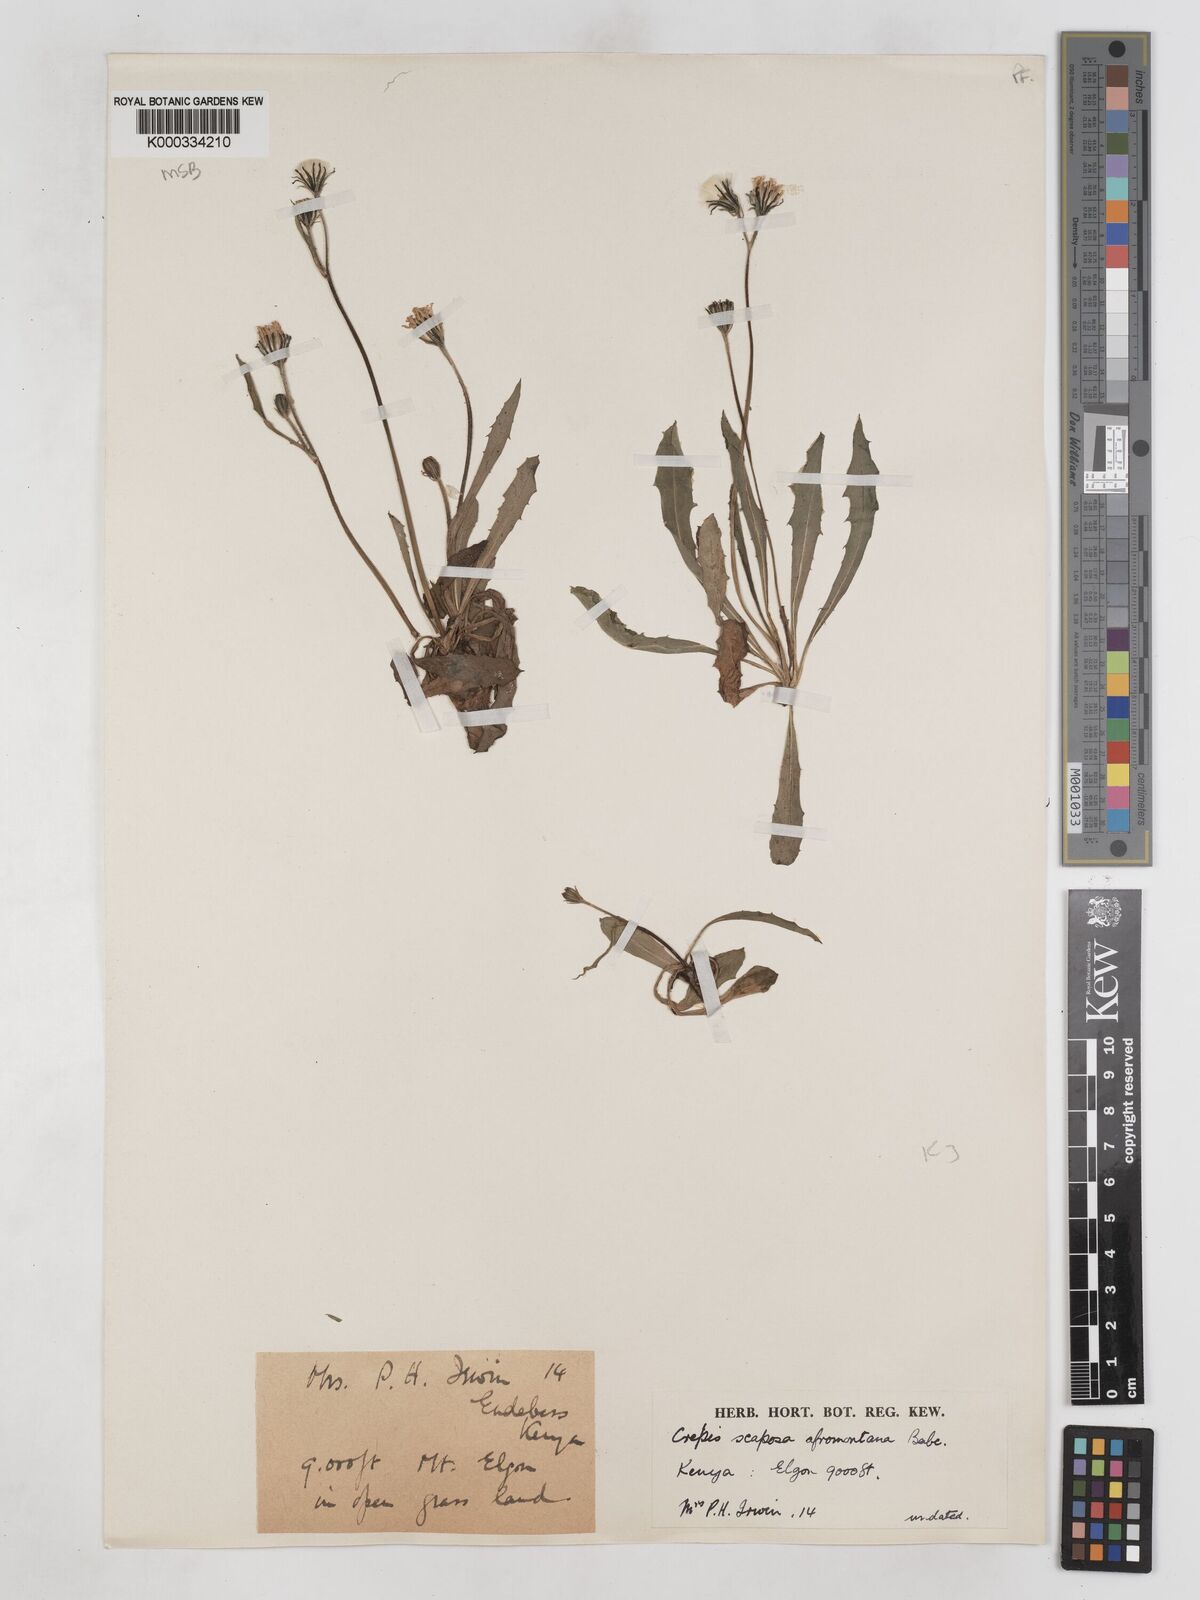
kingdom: Plantae
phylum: Tracheophyta
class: Magnoliopsida
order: Asterales
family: Asteraceae
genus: Crepis
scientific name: Crepis carbonaria
